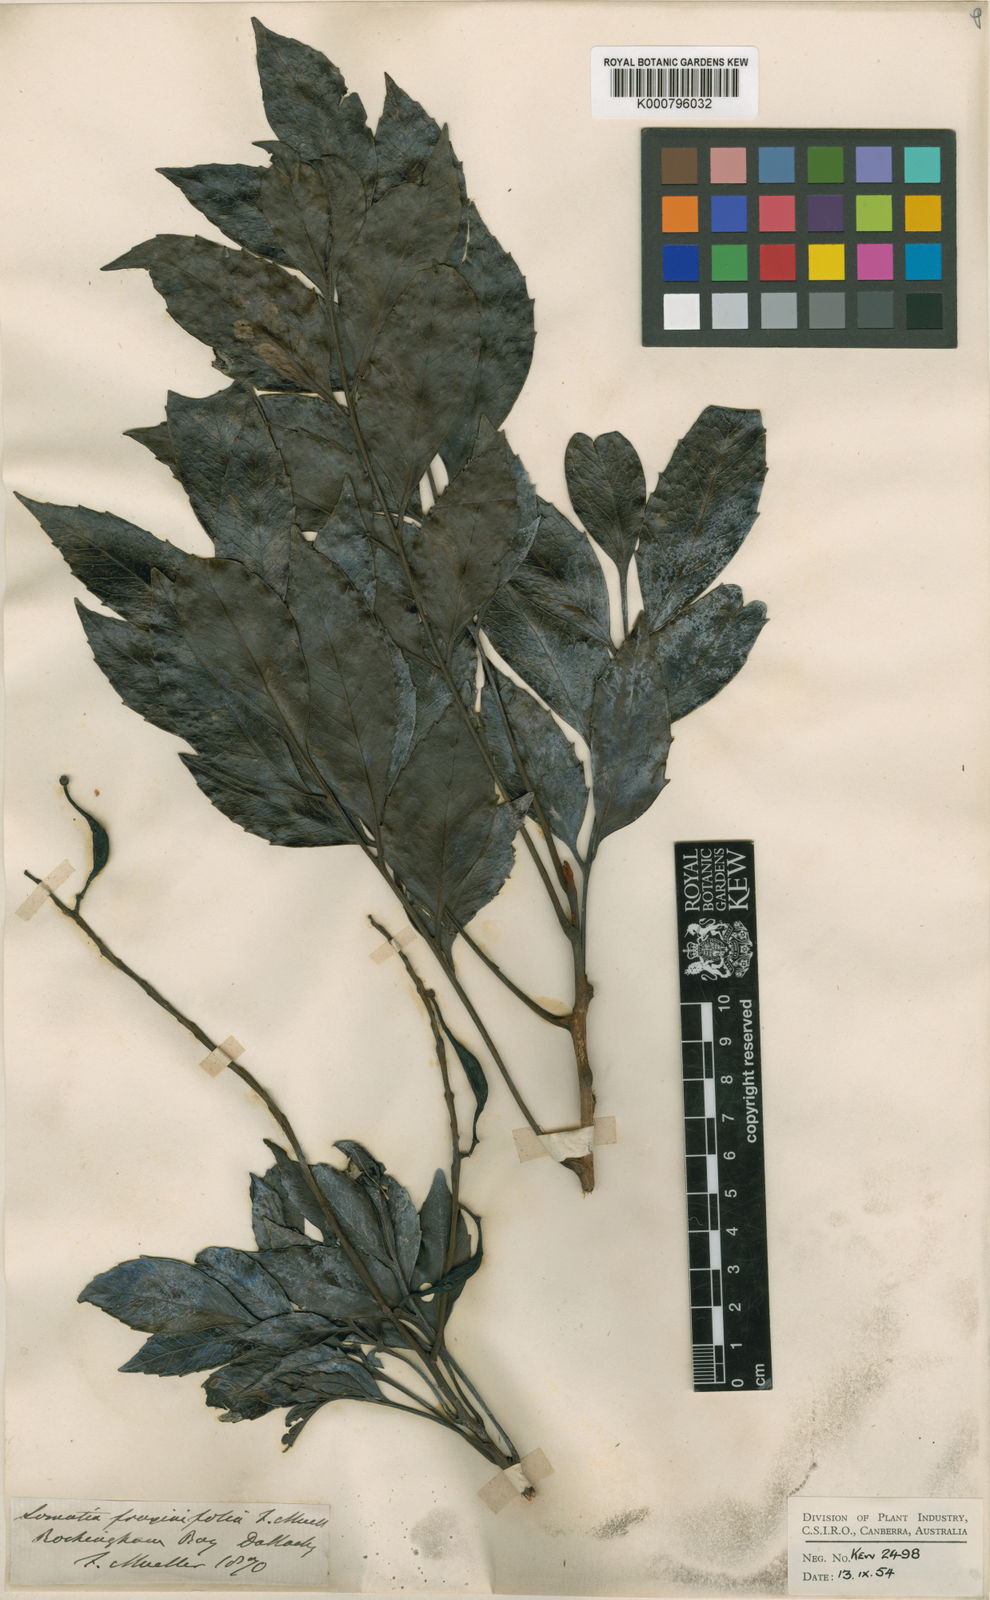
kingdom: Plantae
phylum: Tracheophyta
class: Magnoliopsida
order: Proteales
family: Proteaceae
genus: Lomatia
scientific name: Lomatia fraxinifolia
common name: Black-leaved silky oak
